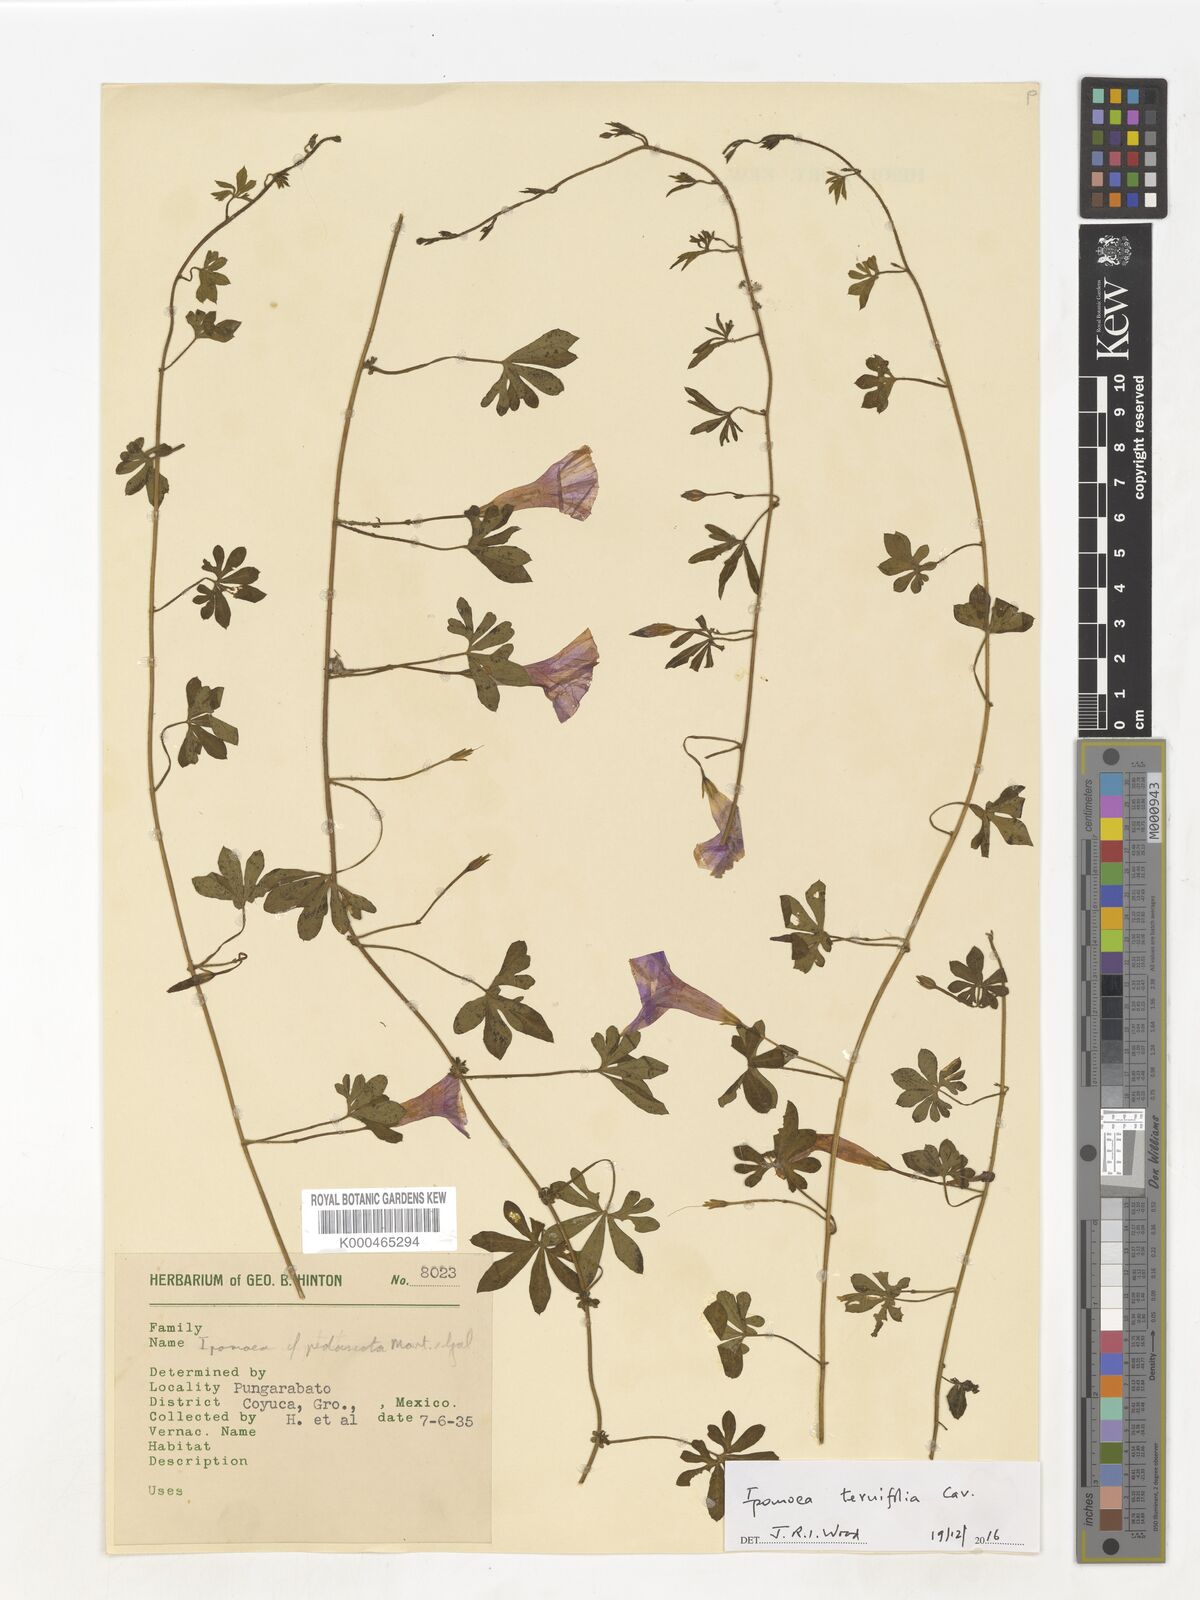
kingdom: Plantae
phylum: Tracheophyta
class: Magnoliopsida
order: Solanales
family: Convolvulaceae
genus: Ipomoea
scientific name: Ipomoea ternifolia
